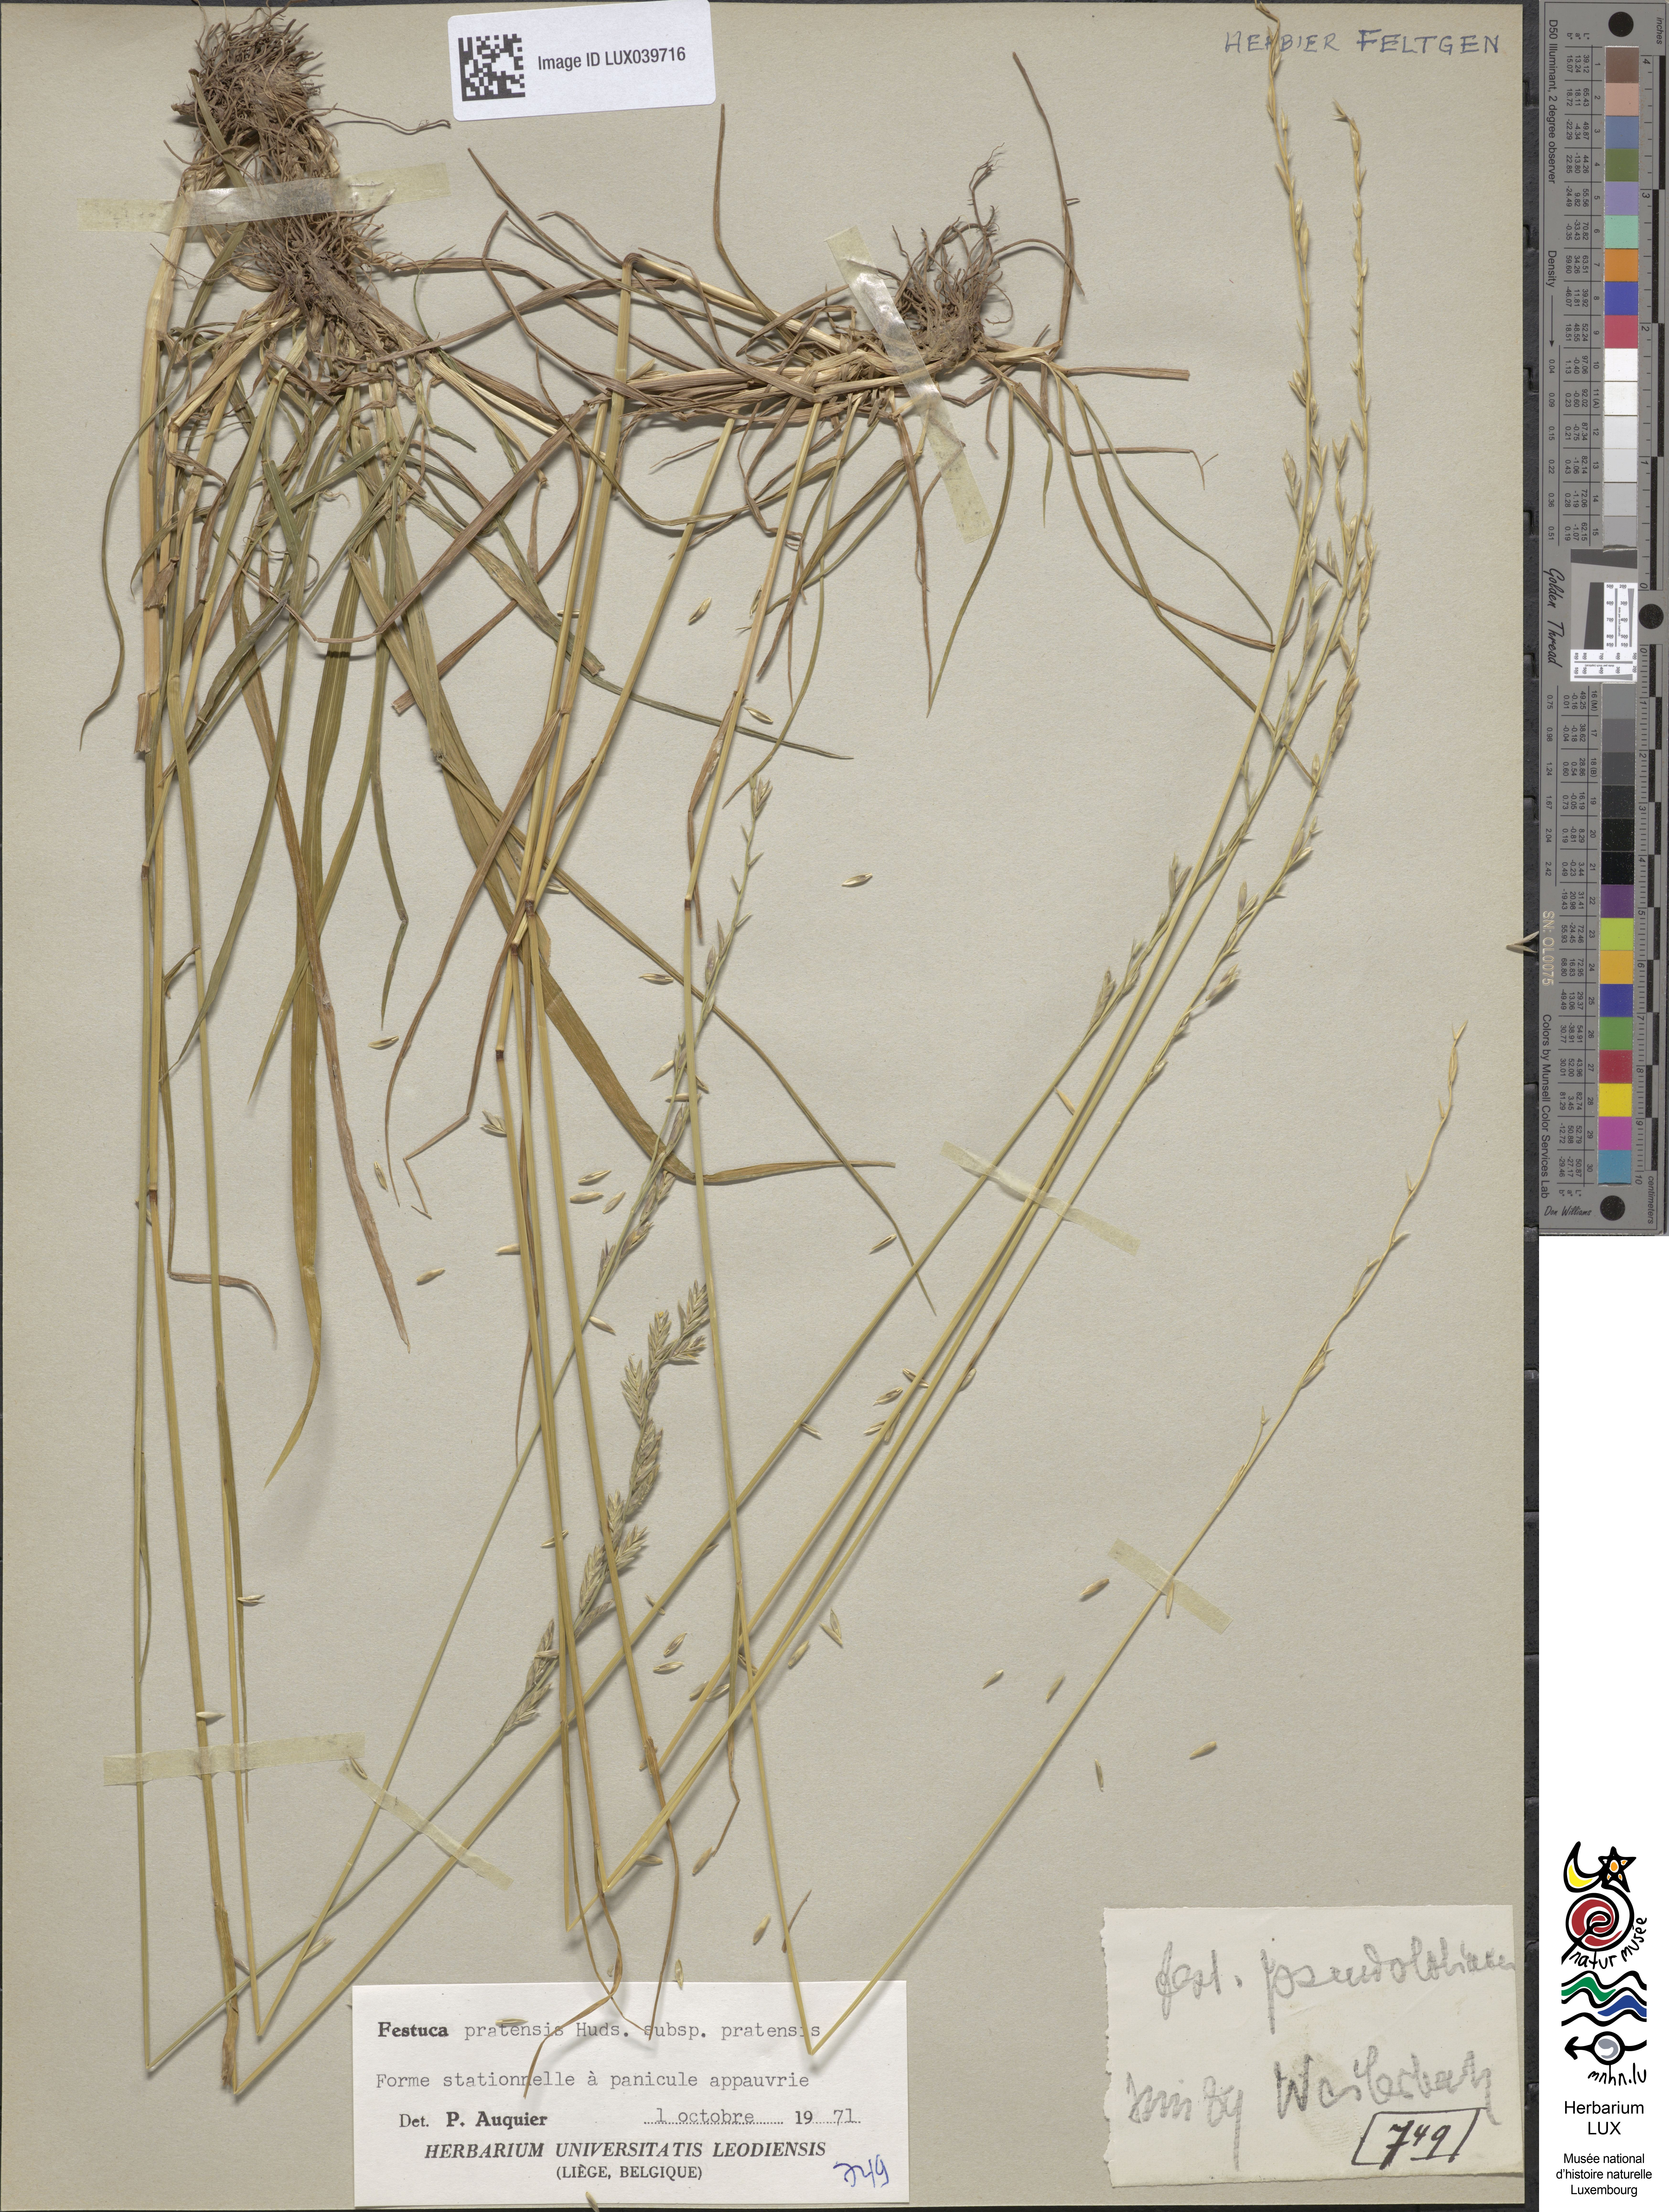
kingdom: Plantae
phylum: Tracheophyta
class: Liliopsida
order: Poales
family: Poaceae
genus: Lolium
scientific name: Lolium pratense
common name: Dover grass
